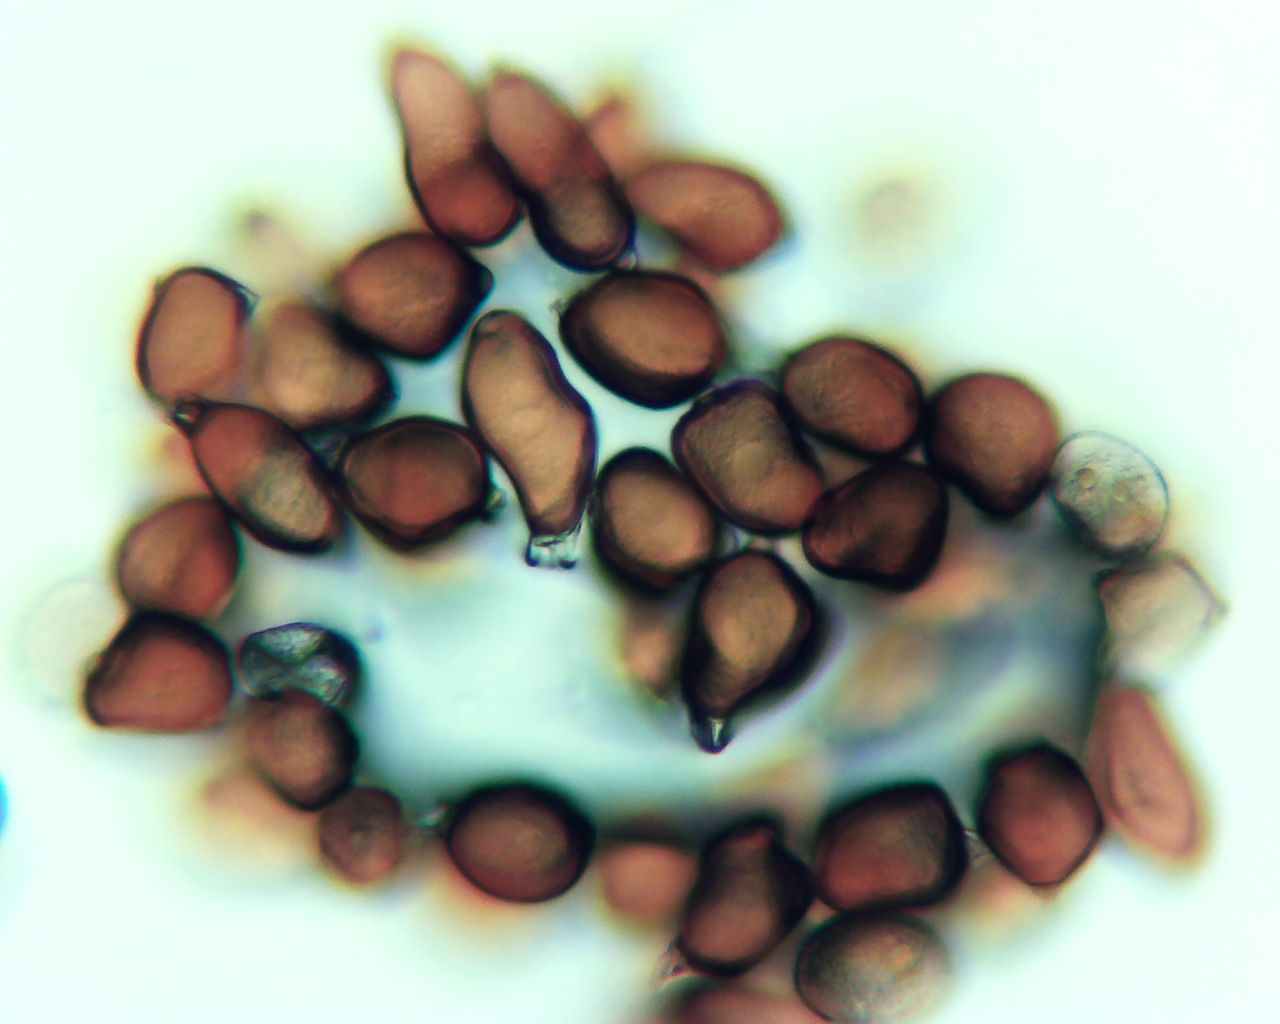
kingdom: Fungi
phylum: Basidiomycota
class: Pucciniomycetes
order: Pucciniales
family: Pucciniaceae
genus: Uromyces
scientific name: Uromyces ficariae
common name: vorterod-encellerust
